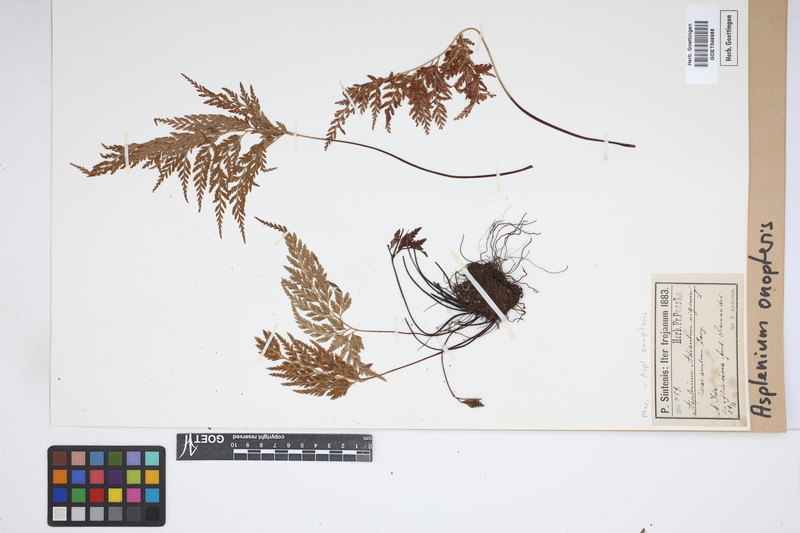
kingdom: Plantae
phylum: Tracheophyta
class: Polypodiopsida
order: Polypodiales
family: Aspleniaceae
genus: Asplenium
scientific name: Asplenium onopteris
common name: Irish spleenwort
